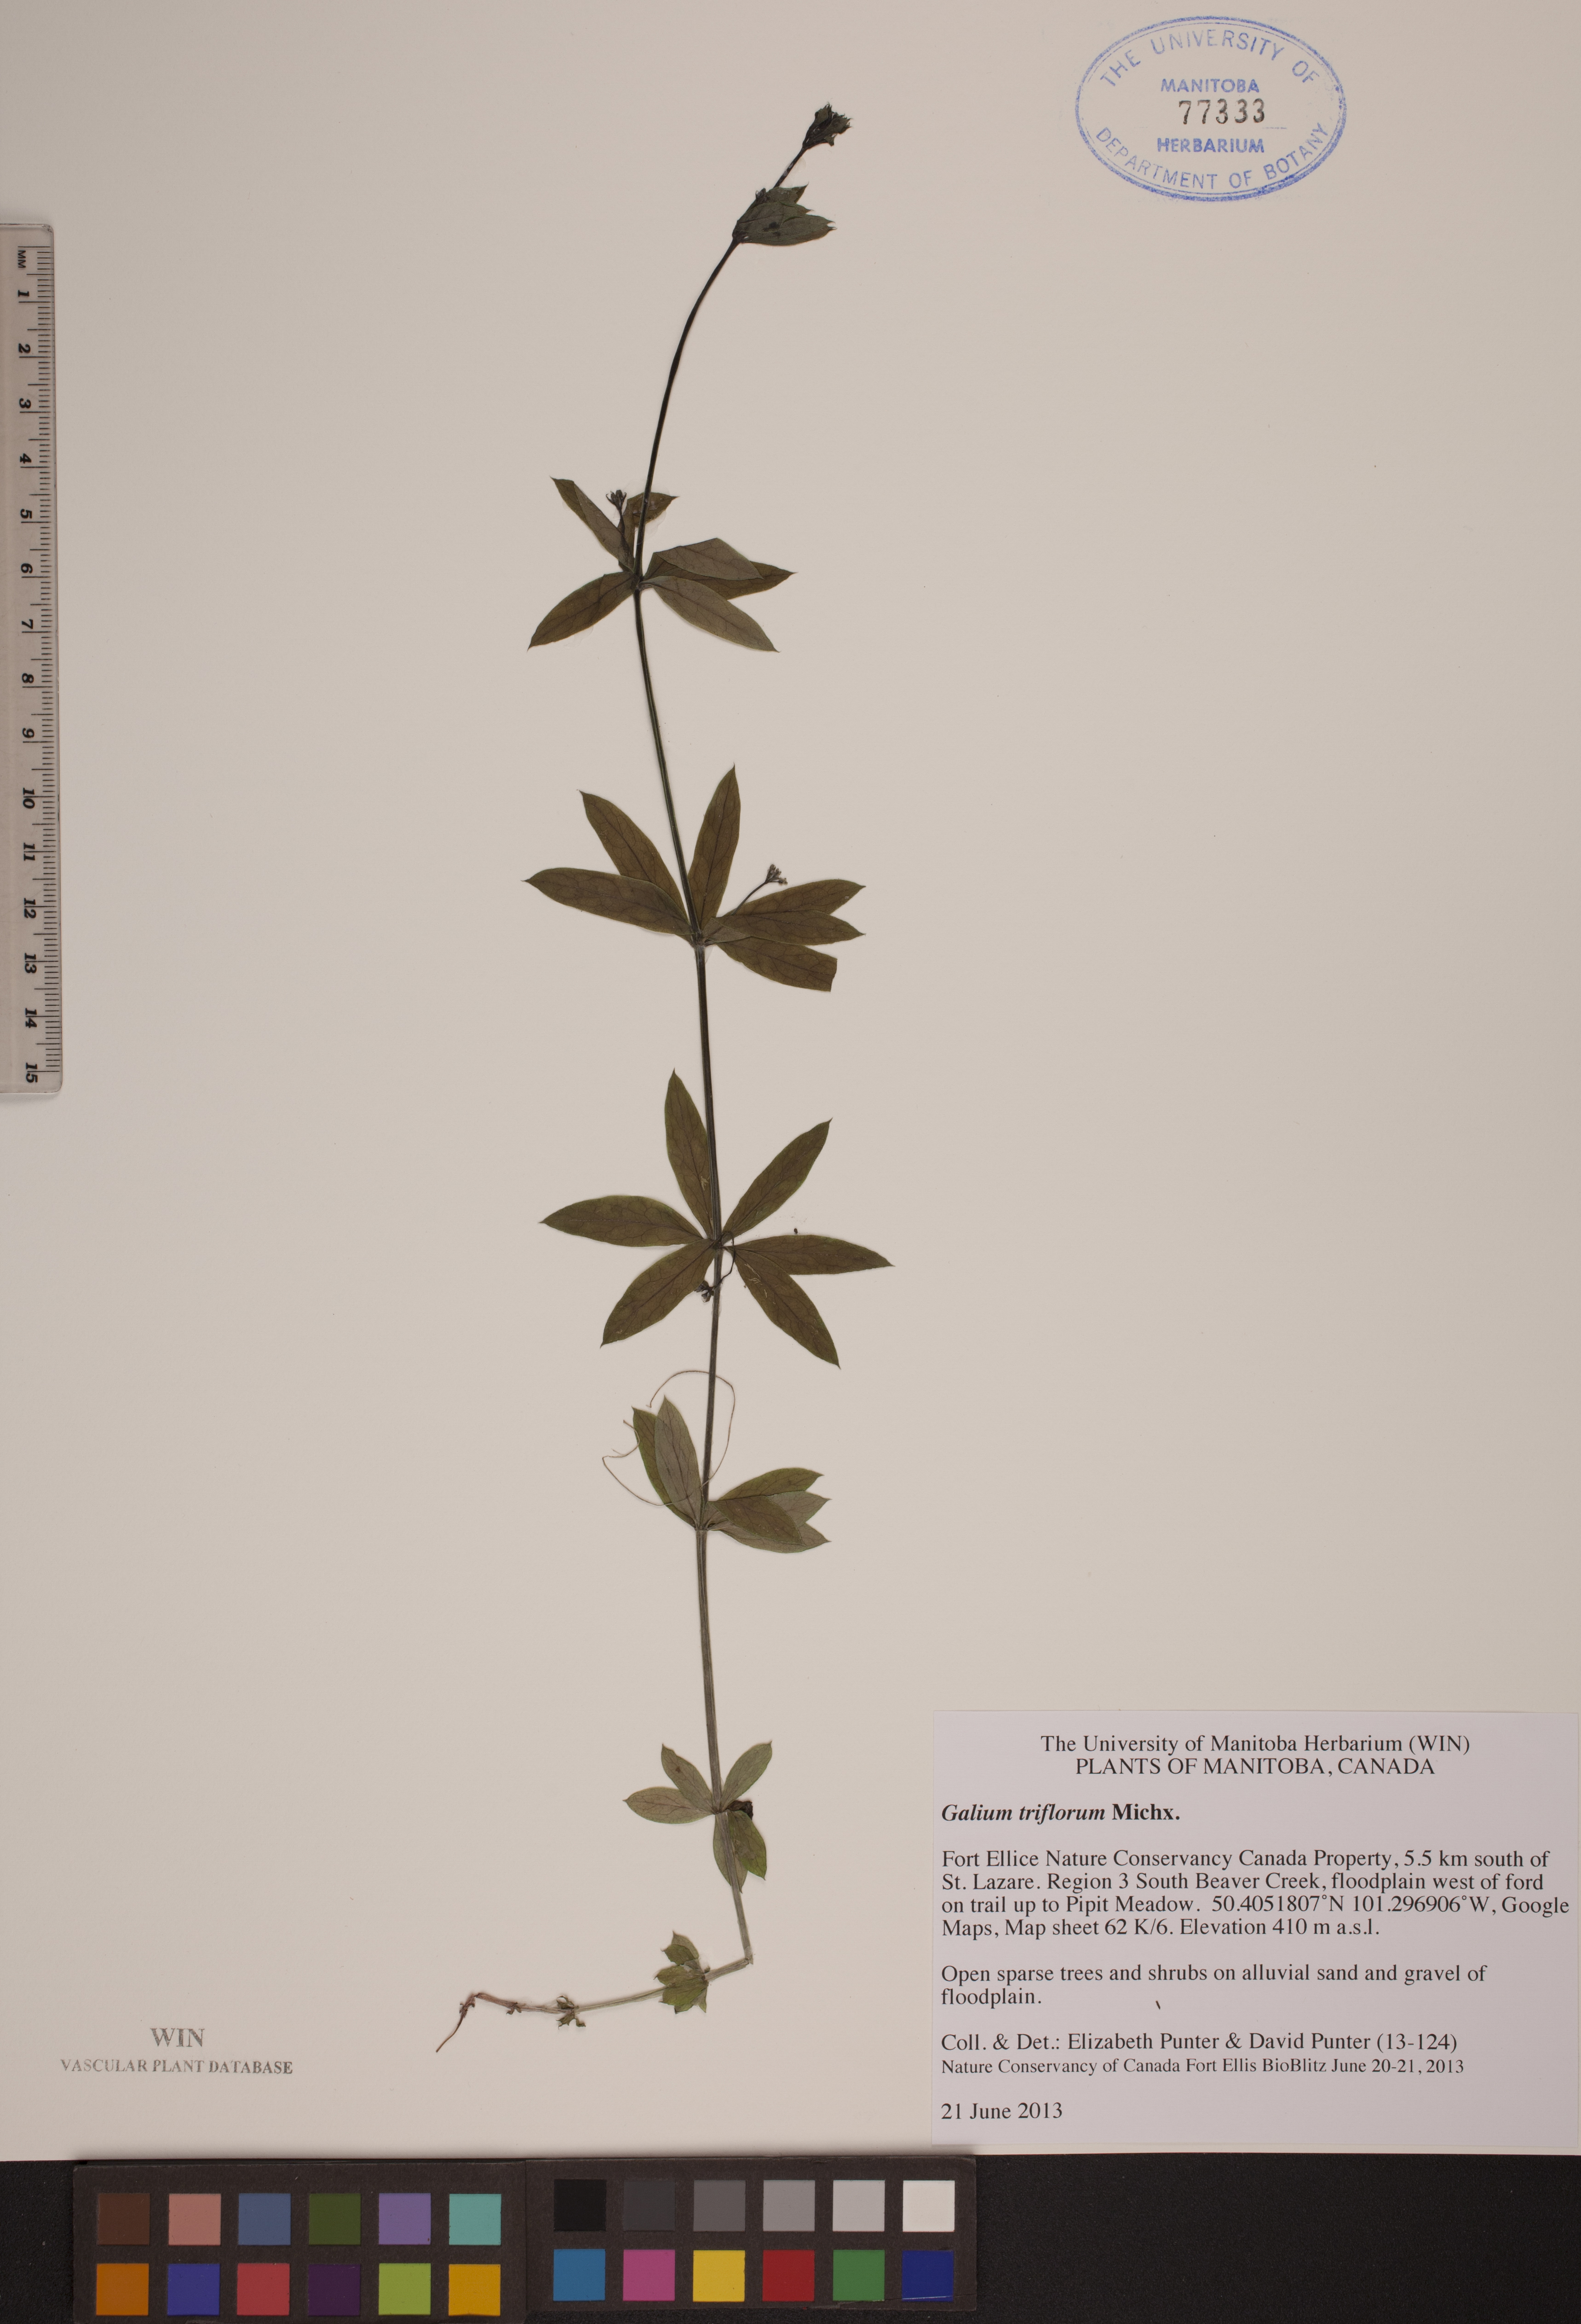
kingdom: Plantae
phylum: Tracheophyta
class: Magnoliopsida
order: Gentianales
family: Rubiaceae
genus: Galium
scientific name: Galium triflorum
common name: Fragrant bedstraw
